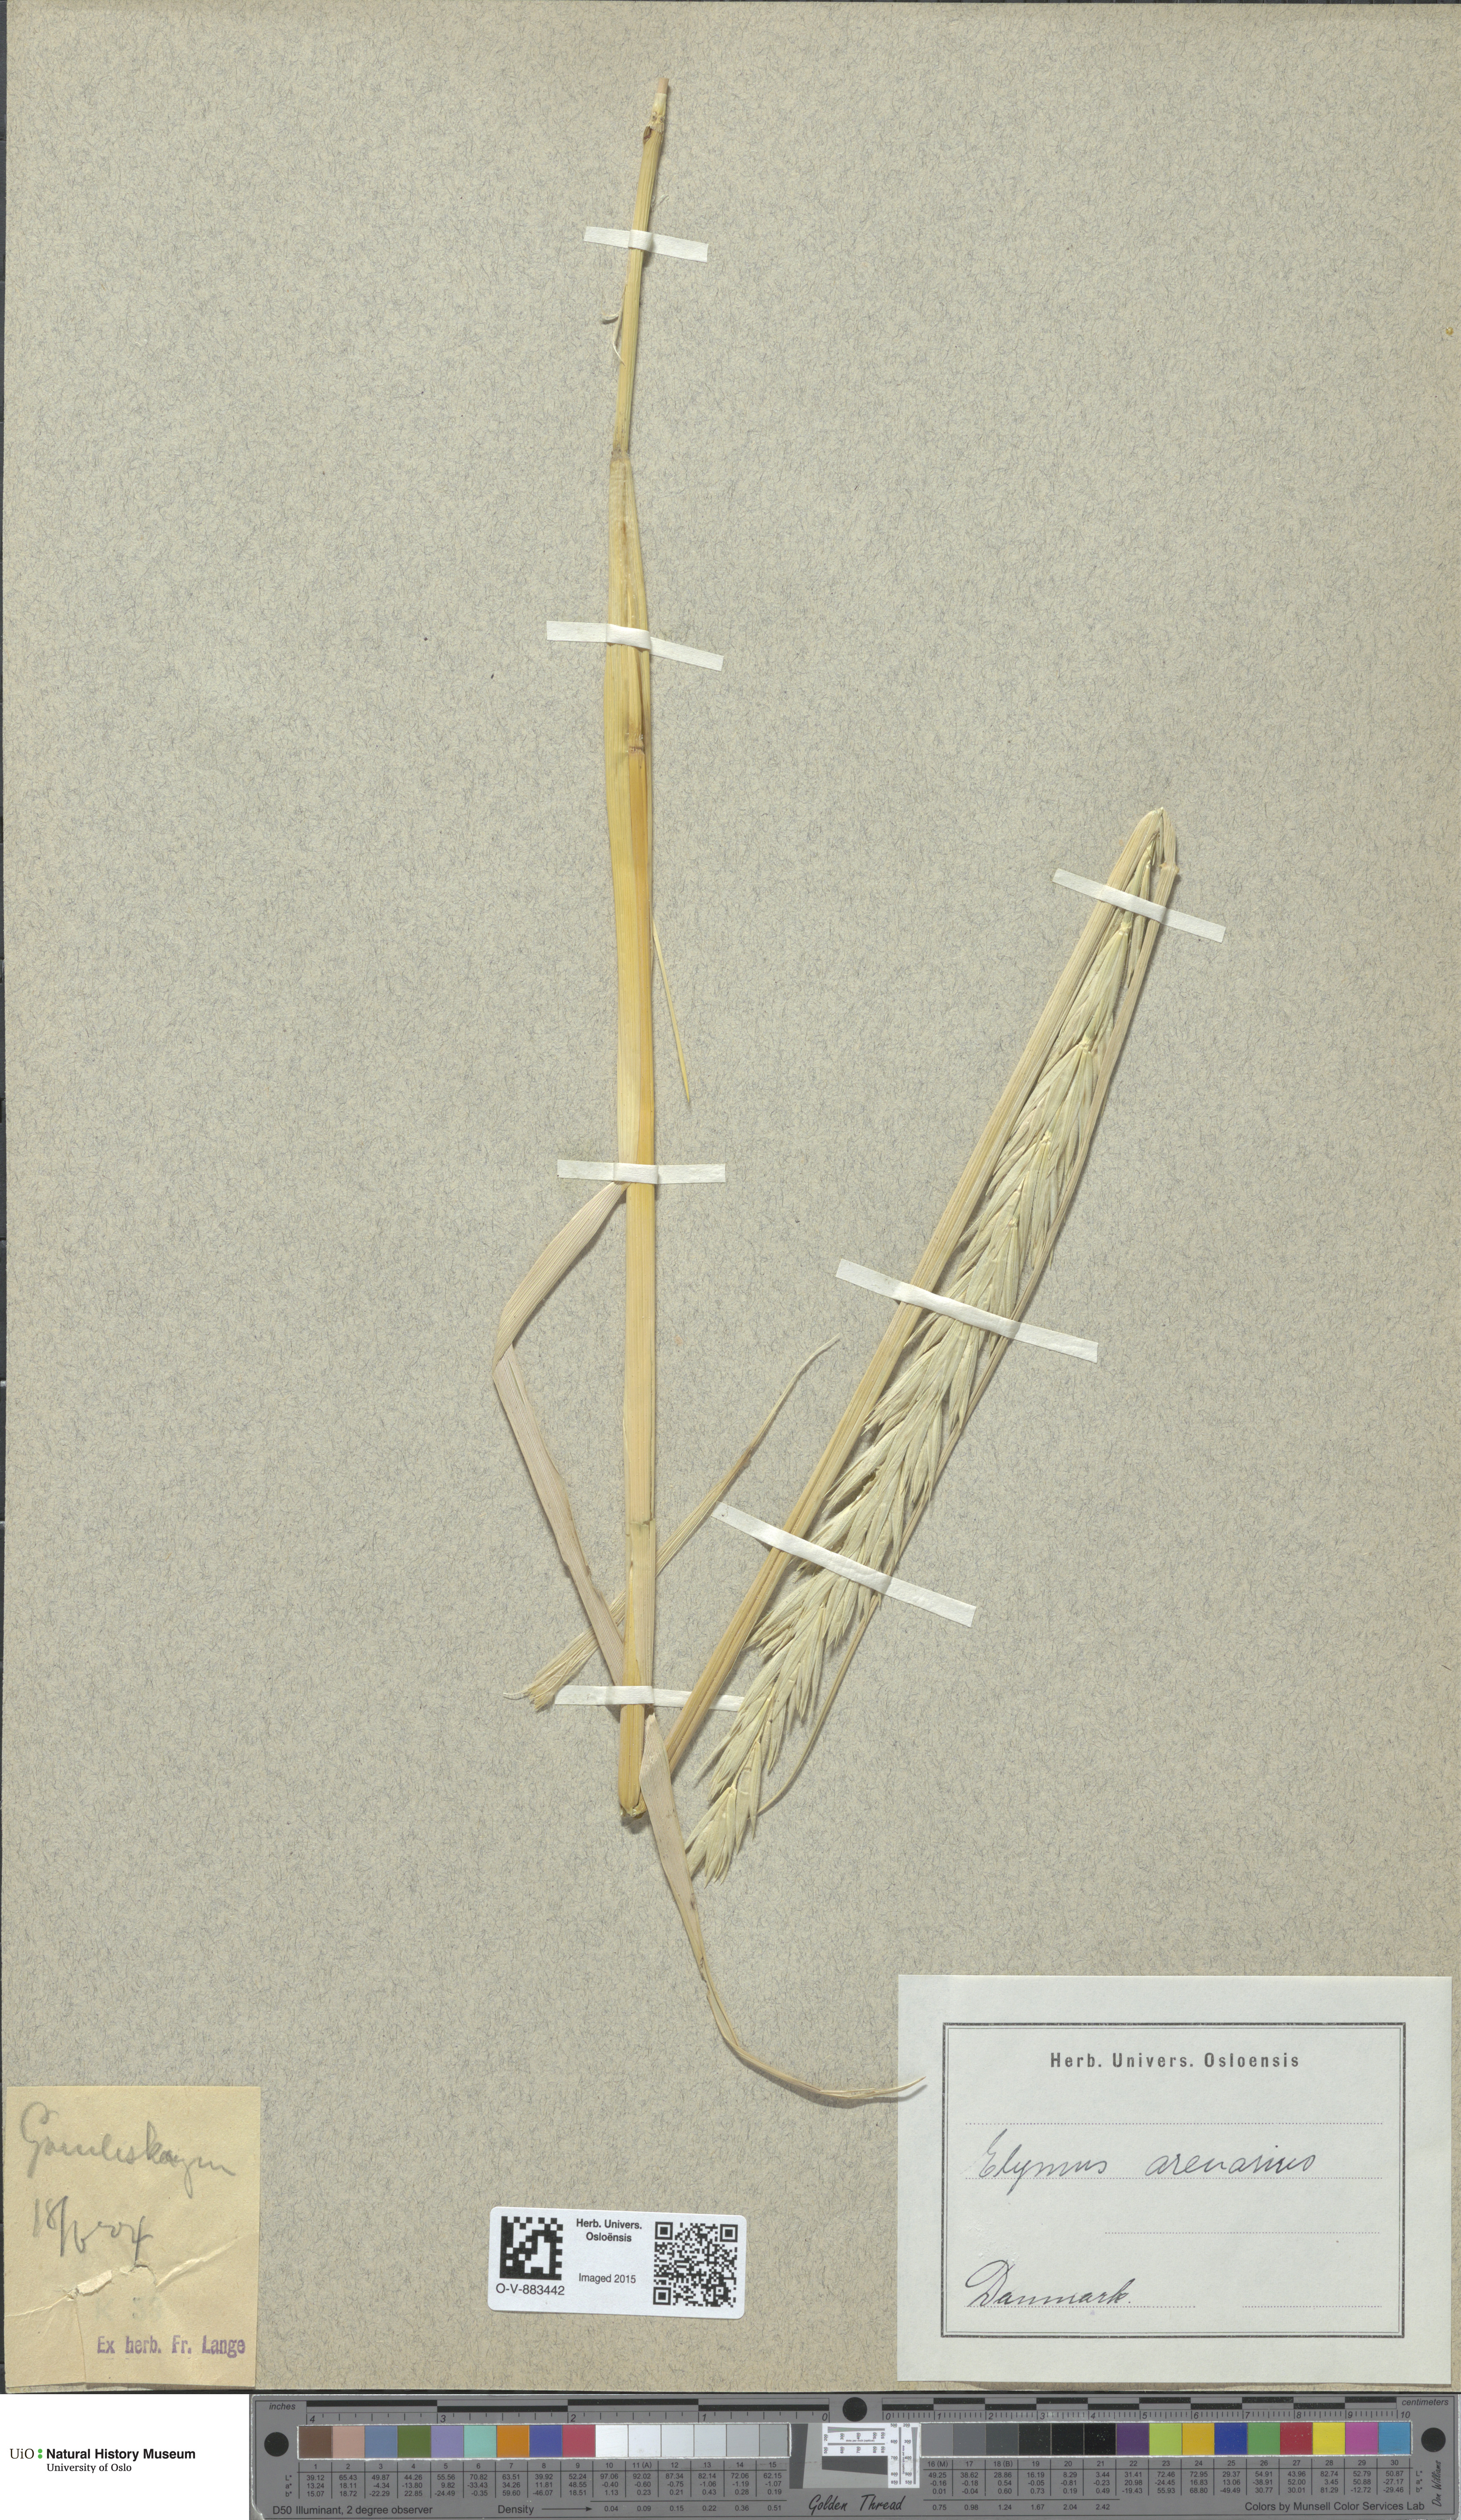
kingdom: Plantae
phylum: Tracheophyta
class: Liliopsida
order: Poales
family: Poaceae
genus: Leymus
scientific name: Leymus arenarius
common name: Lyme-grass
